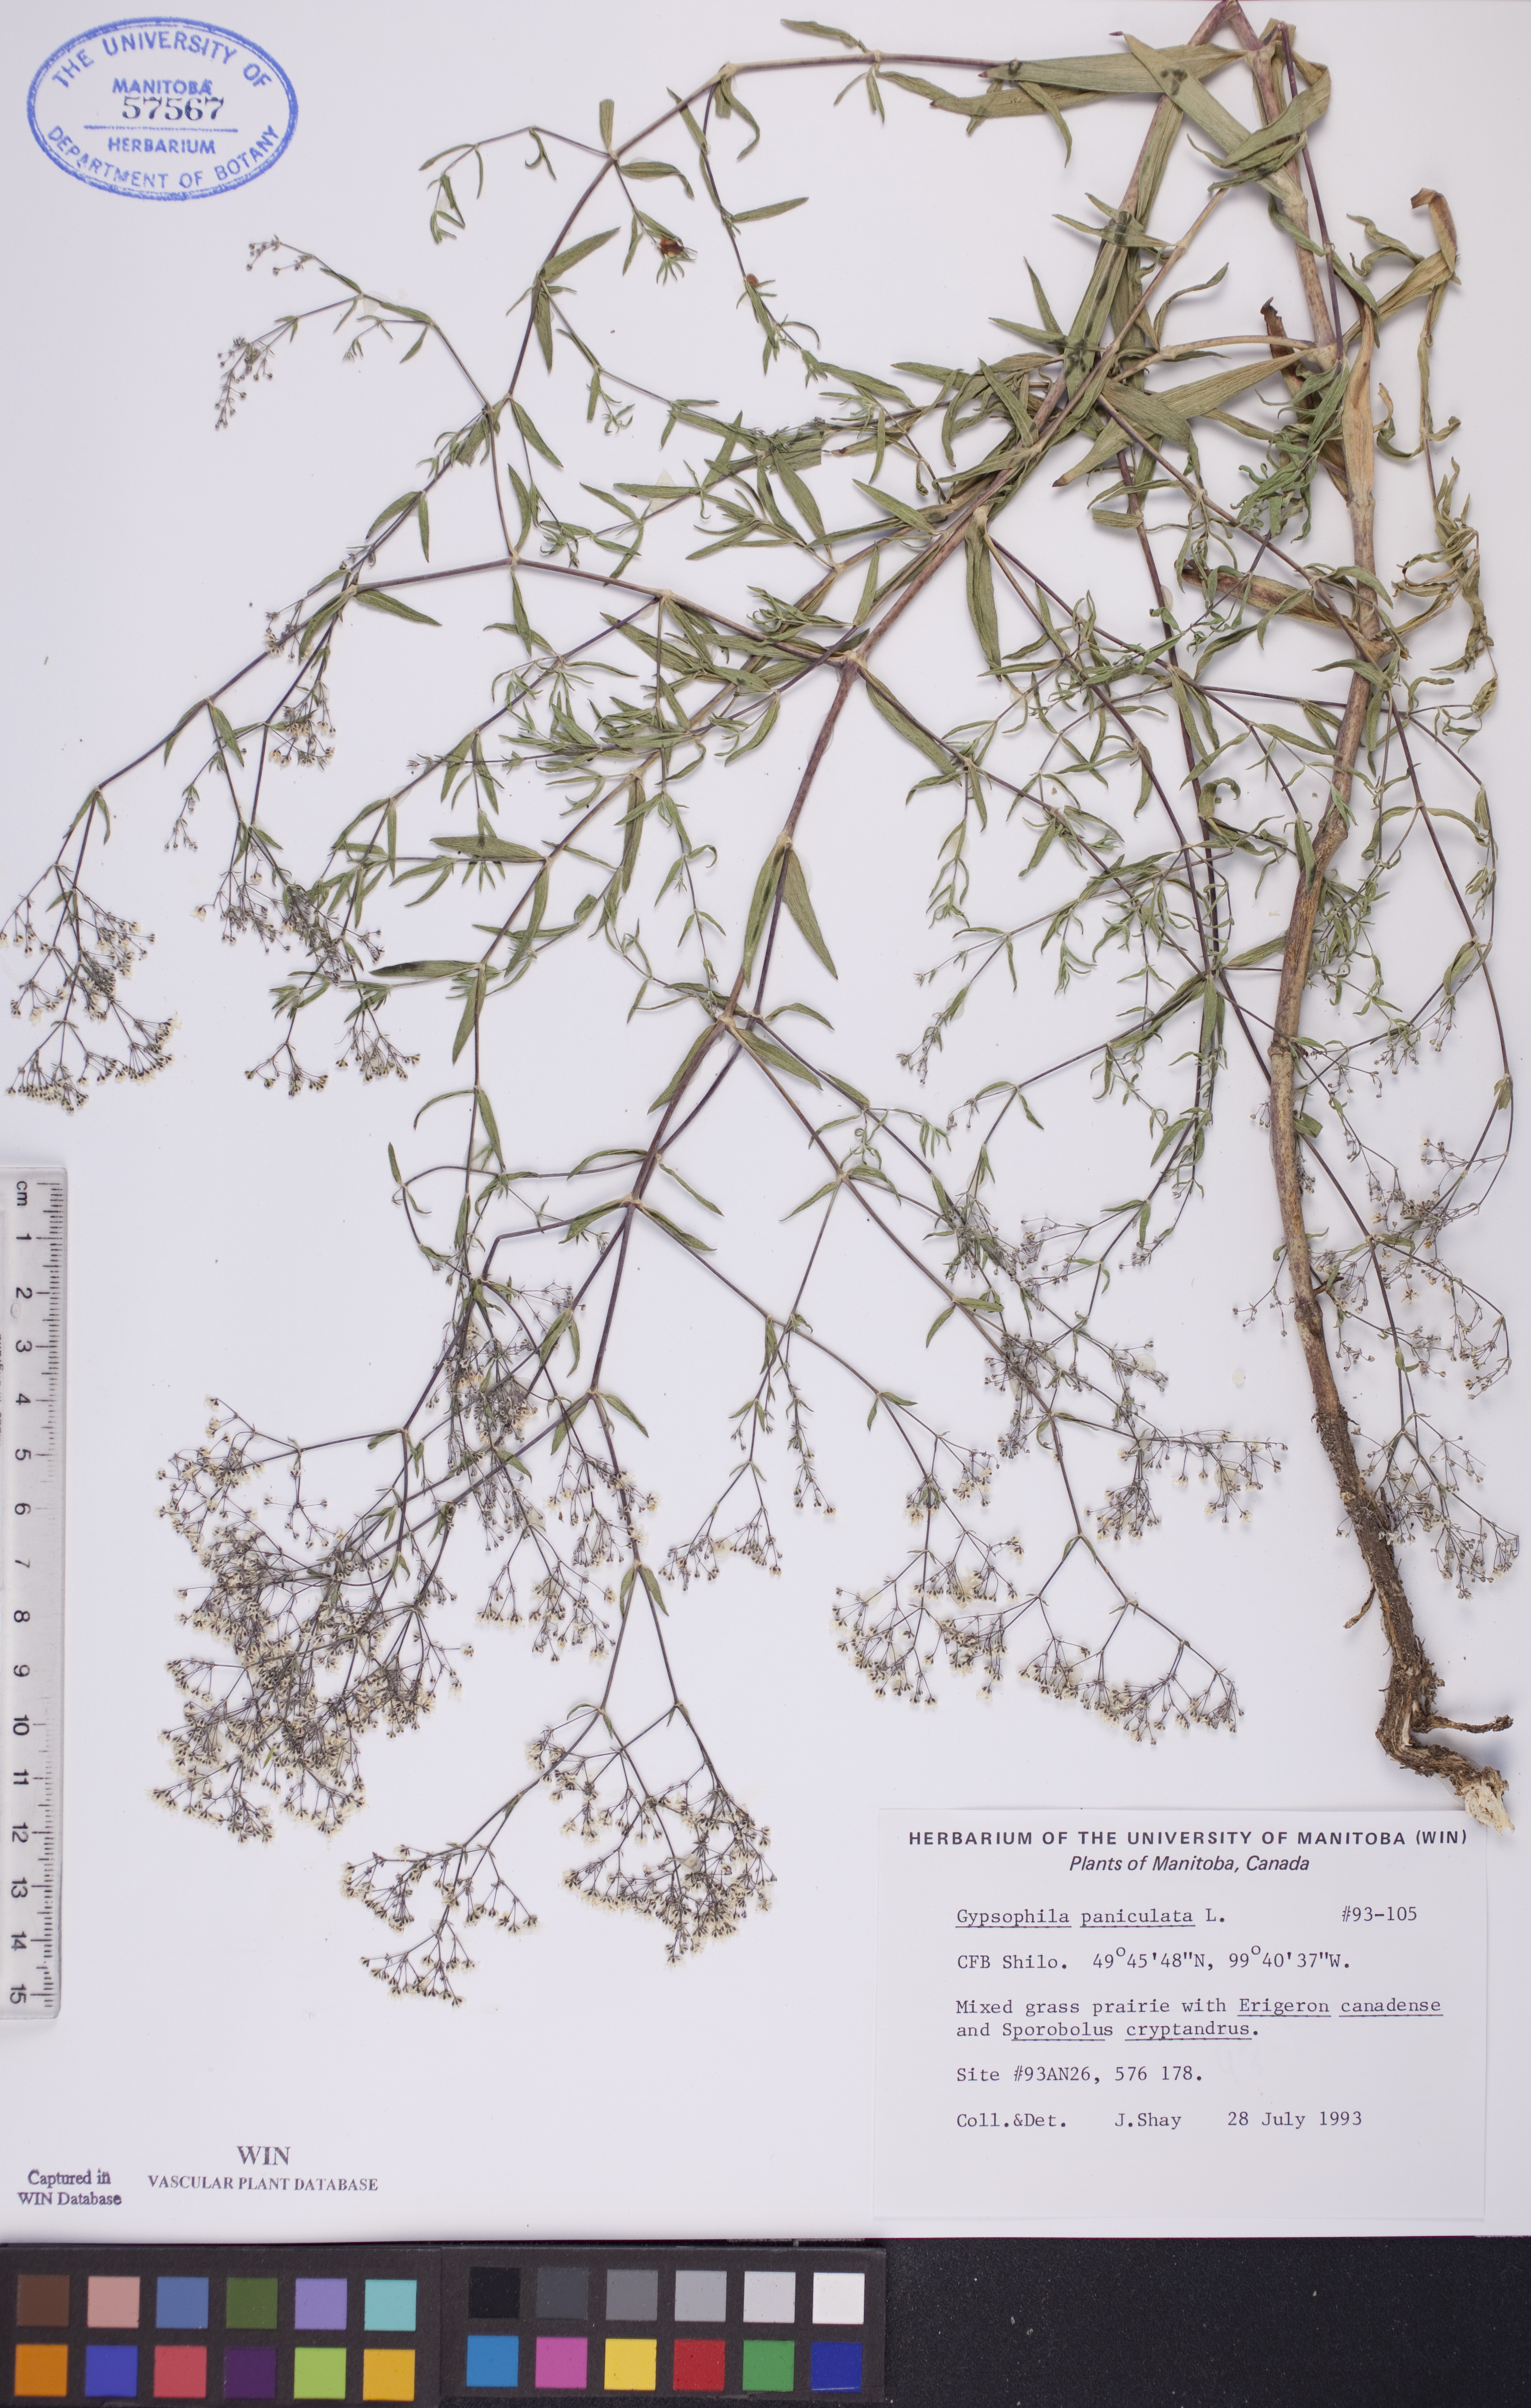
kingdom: Plantae
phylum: Tracheophyta
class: Magnoliopsida
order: Caryophyllales
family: Caryophyllaceae
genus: Gypsophila
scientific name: Gypsophila paniculata
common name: Baby's-breath
